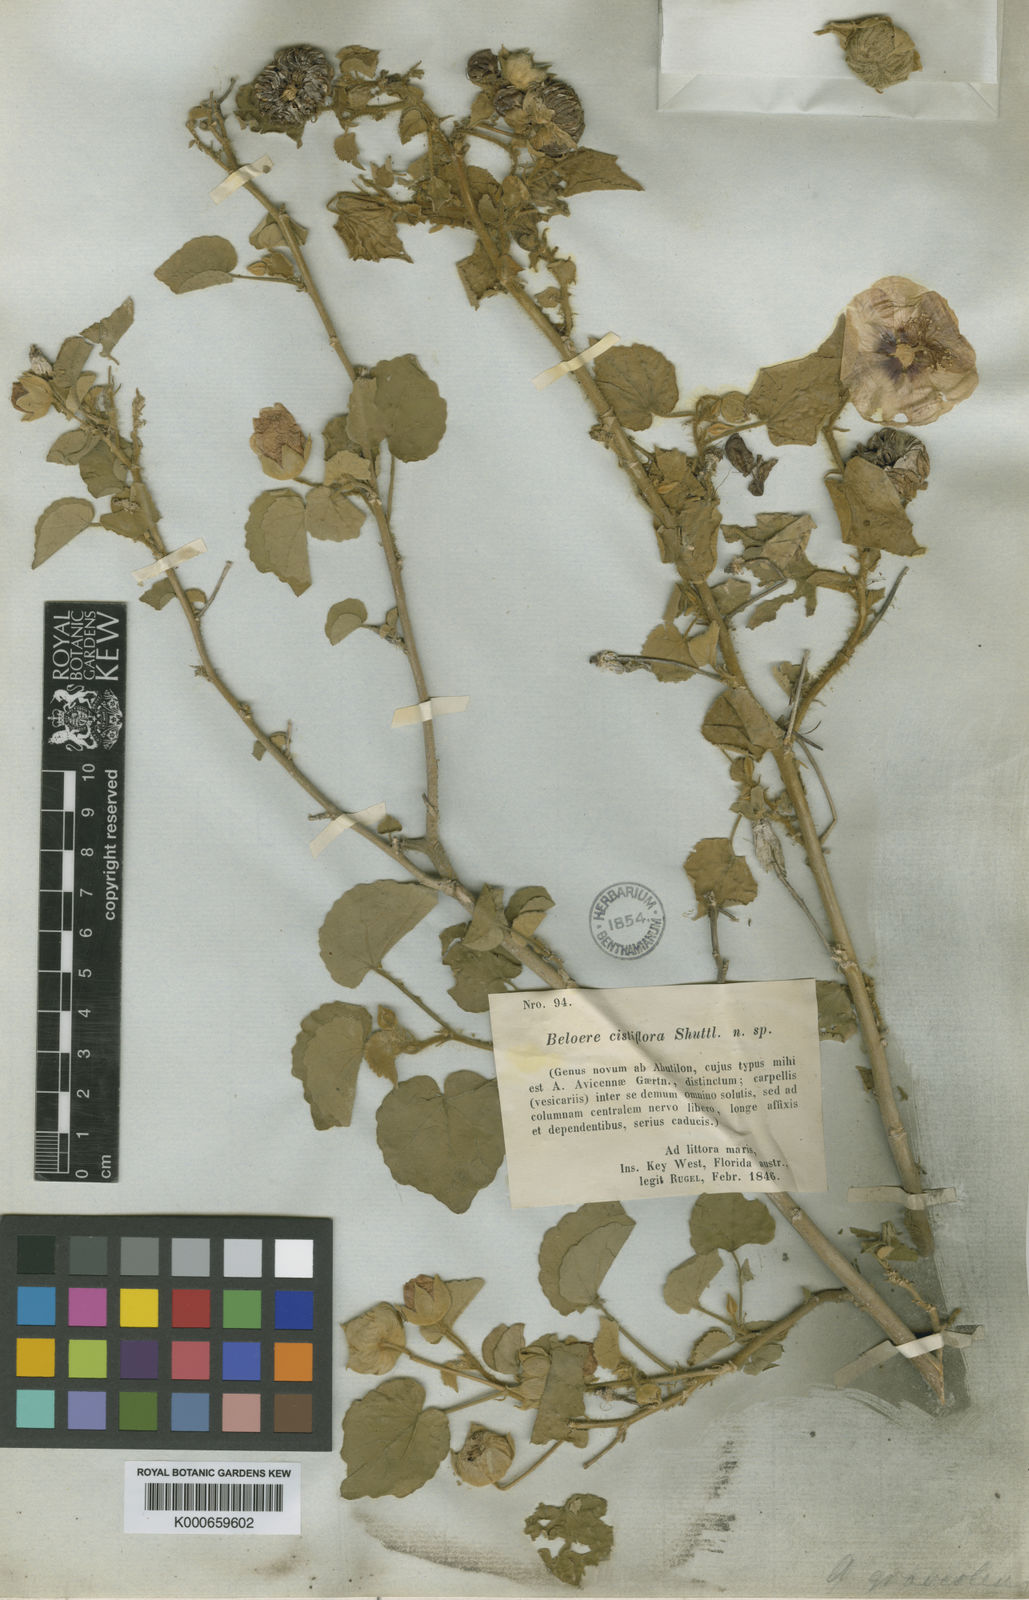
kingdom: Plantae
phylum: Tracheophyta
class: Magnoliopsida
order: Malvales
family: Malvaceae
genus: Abutilon
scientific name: Abutilon hirtum
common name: Florida keys indian mallow
